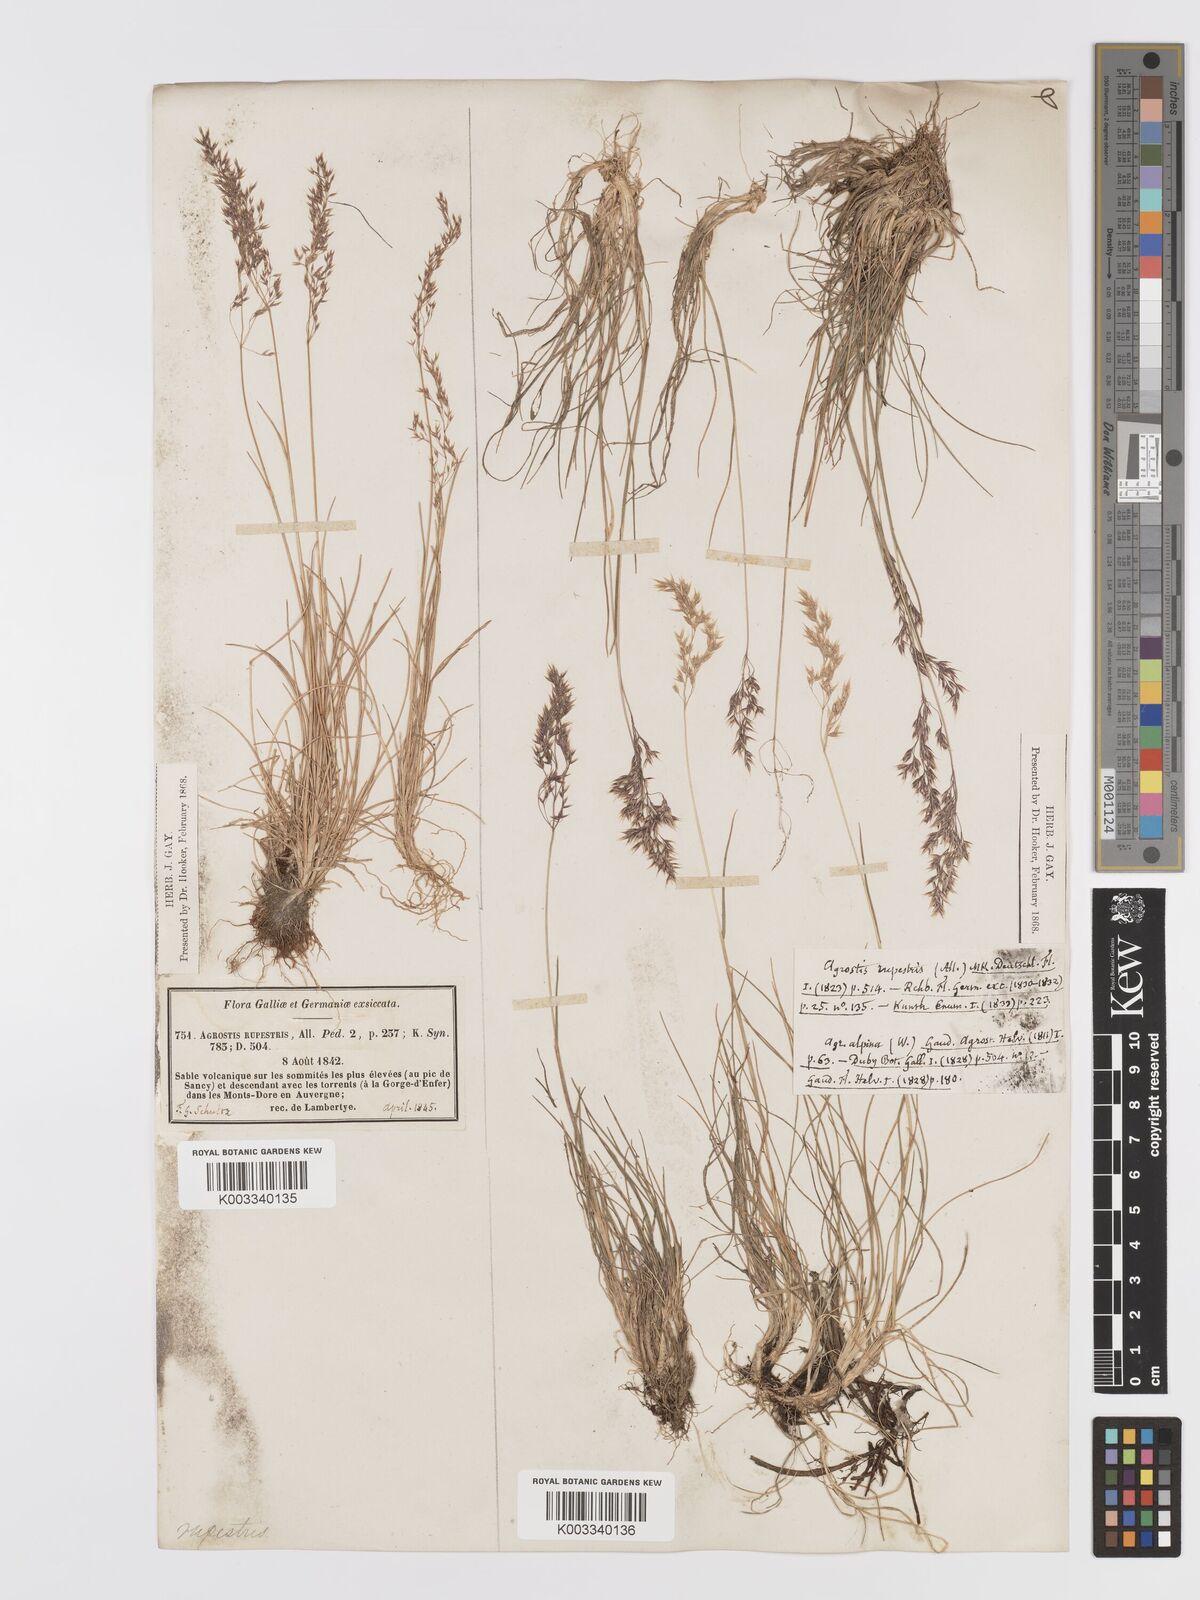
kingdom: Plantae
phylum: Tracheophyta
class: Liliopsida
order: Poales
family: Poaceae
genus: Agrostis
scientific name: Agrostis rupestris
